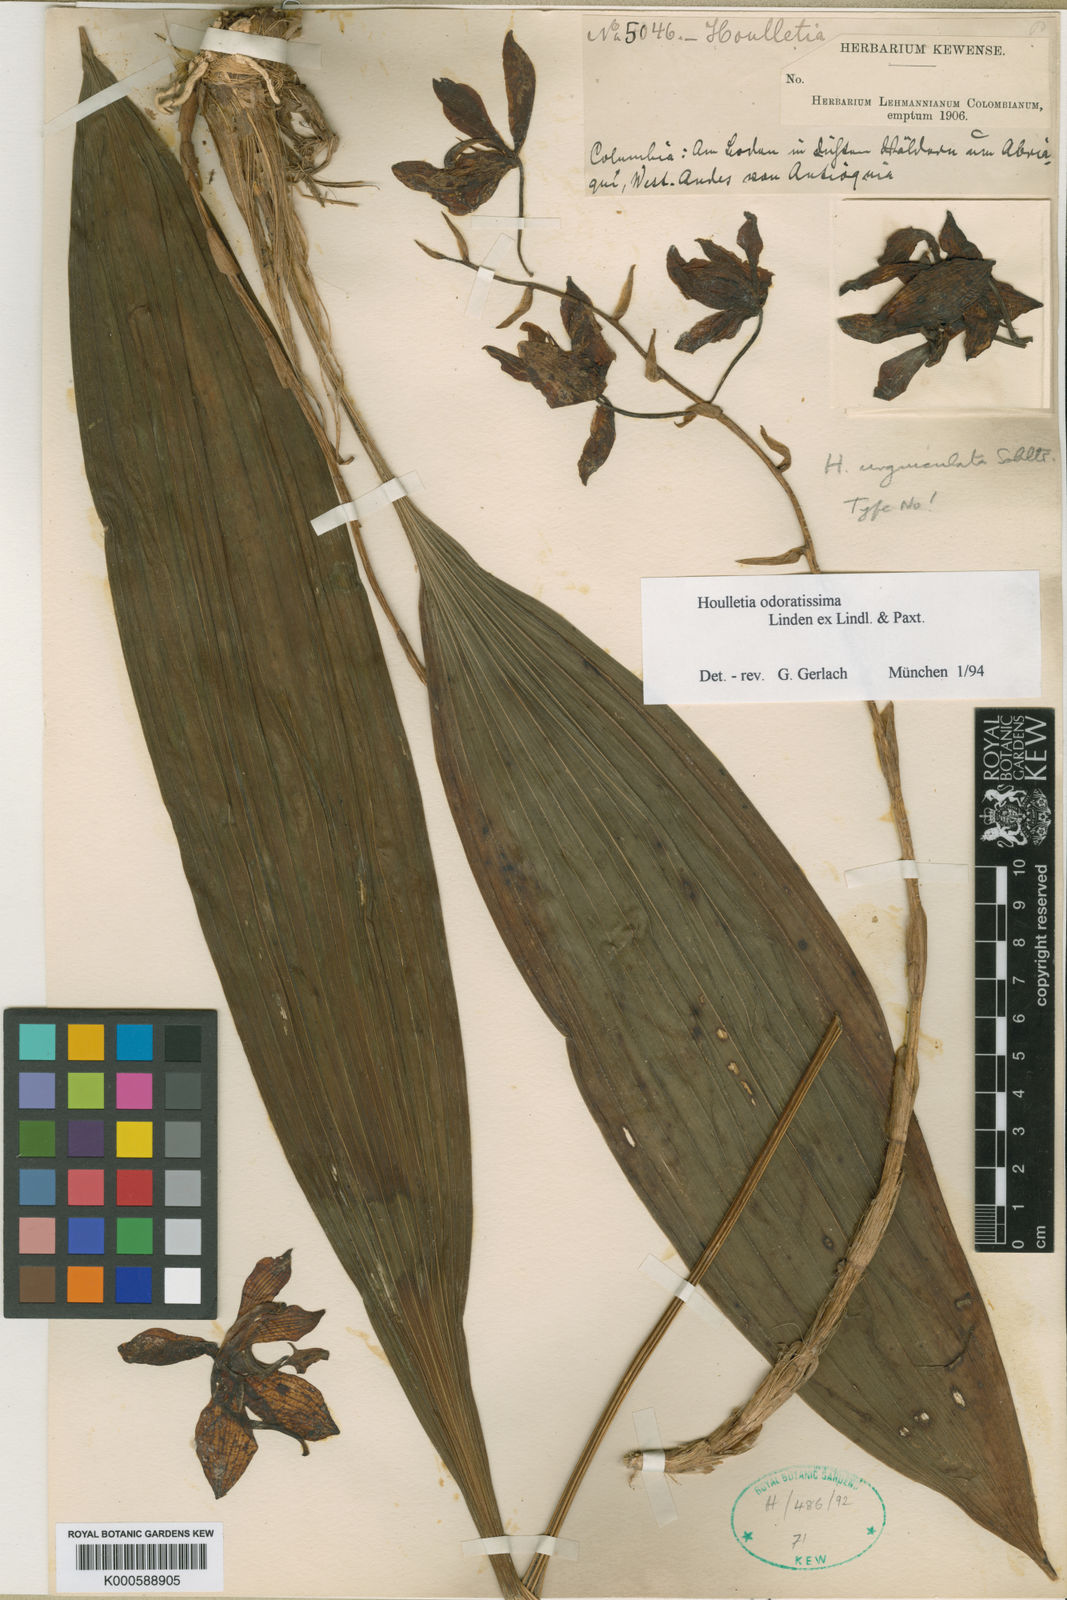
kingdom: Plantae
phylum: Tracheophyta
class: Liliopsida
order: Asparagales
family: Orchidaceae
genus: Houlletia
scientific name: Houlletia odoratissima
